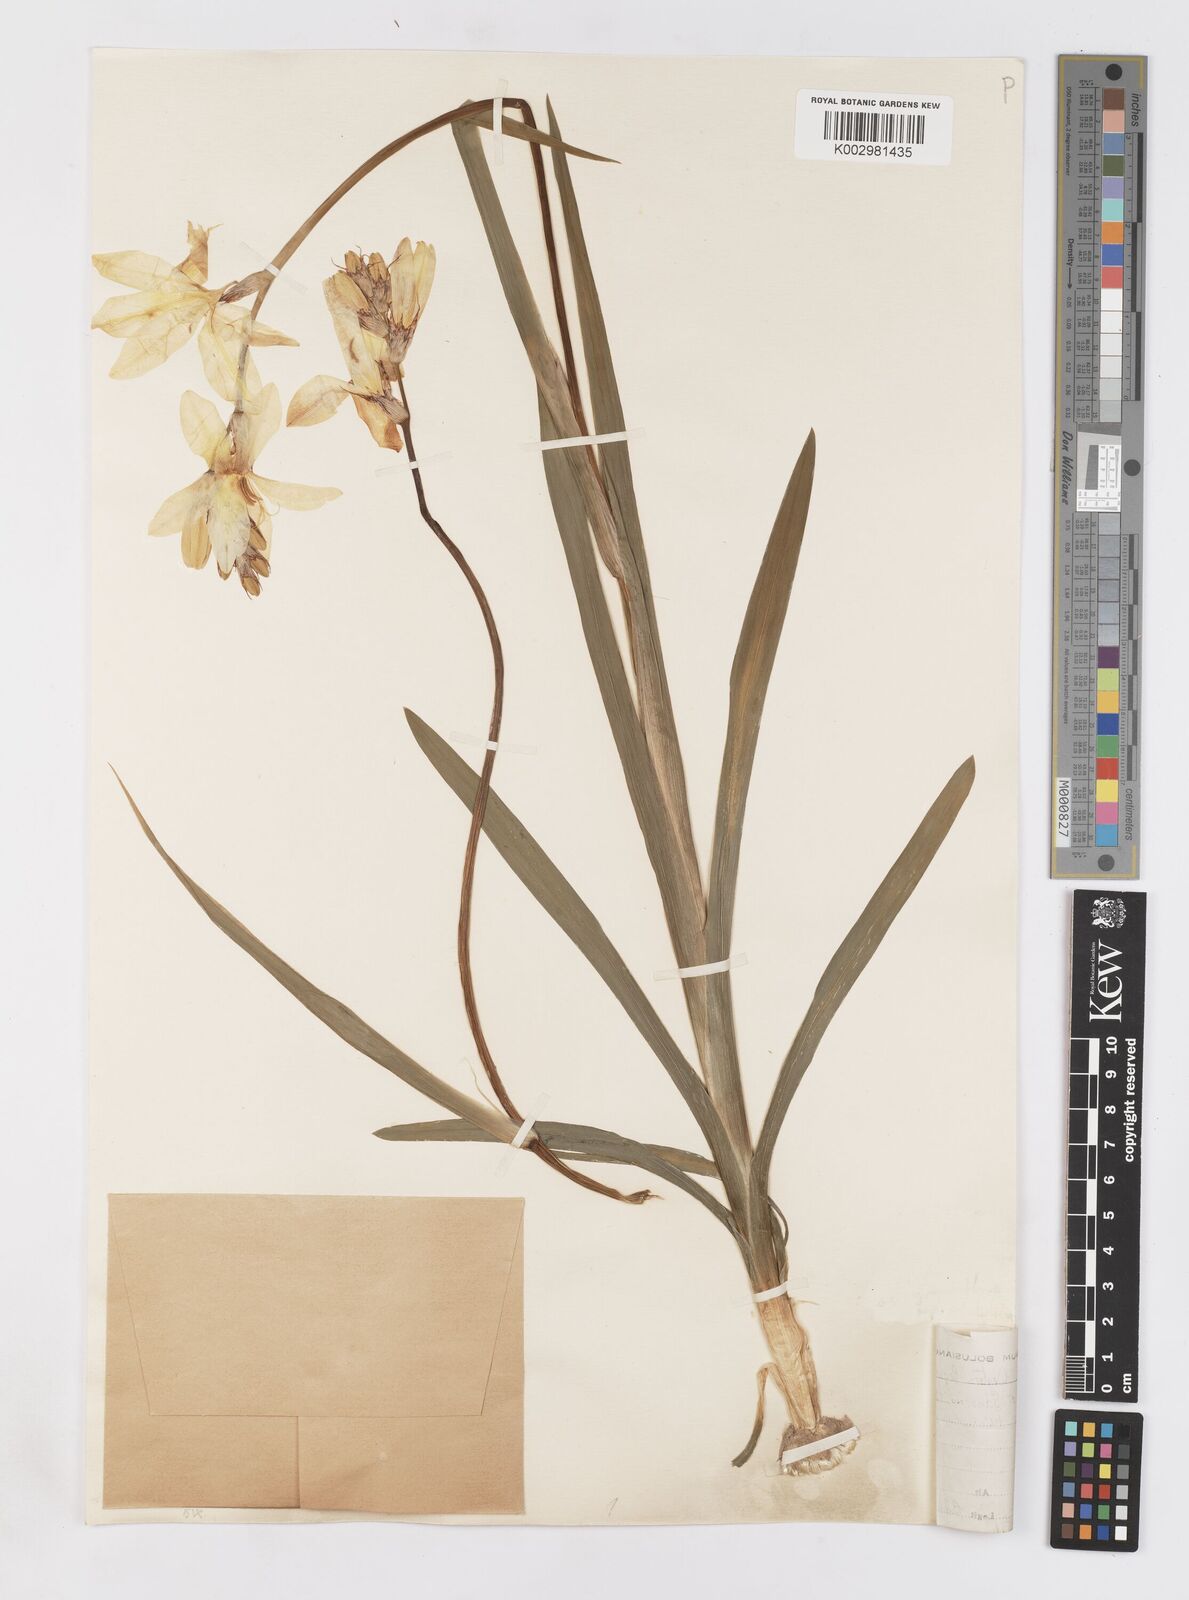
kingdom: Plantae
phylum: Tracheophyta
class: Liliopsida
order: Asparagales
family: Iridaceae
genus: Sparaxis
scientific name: Sparaxis bulbifera
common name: Harlequin-flower
